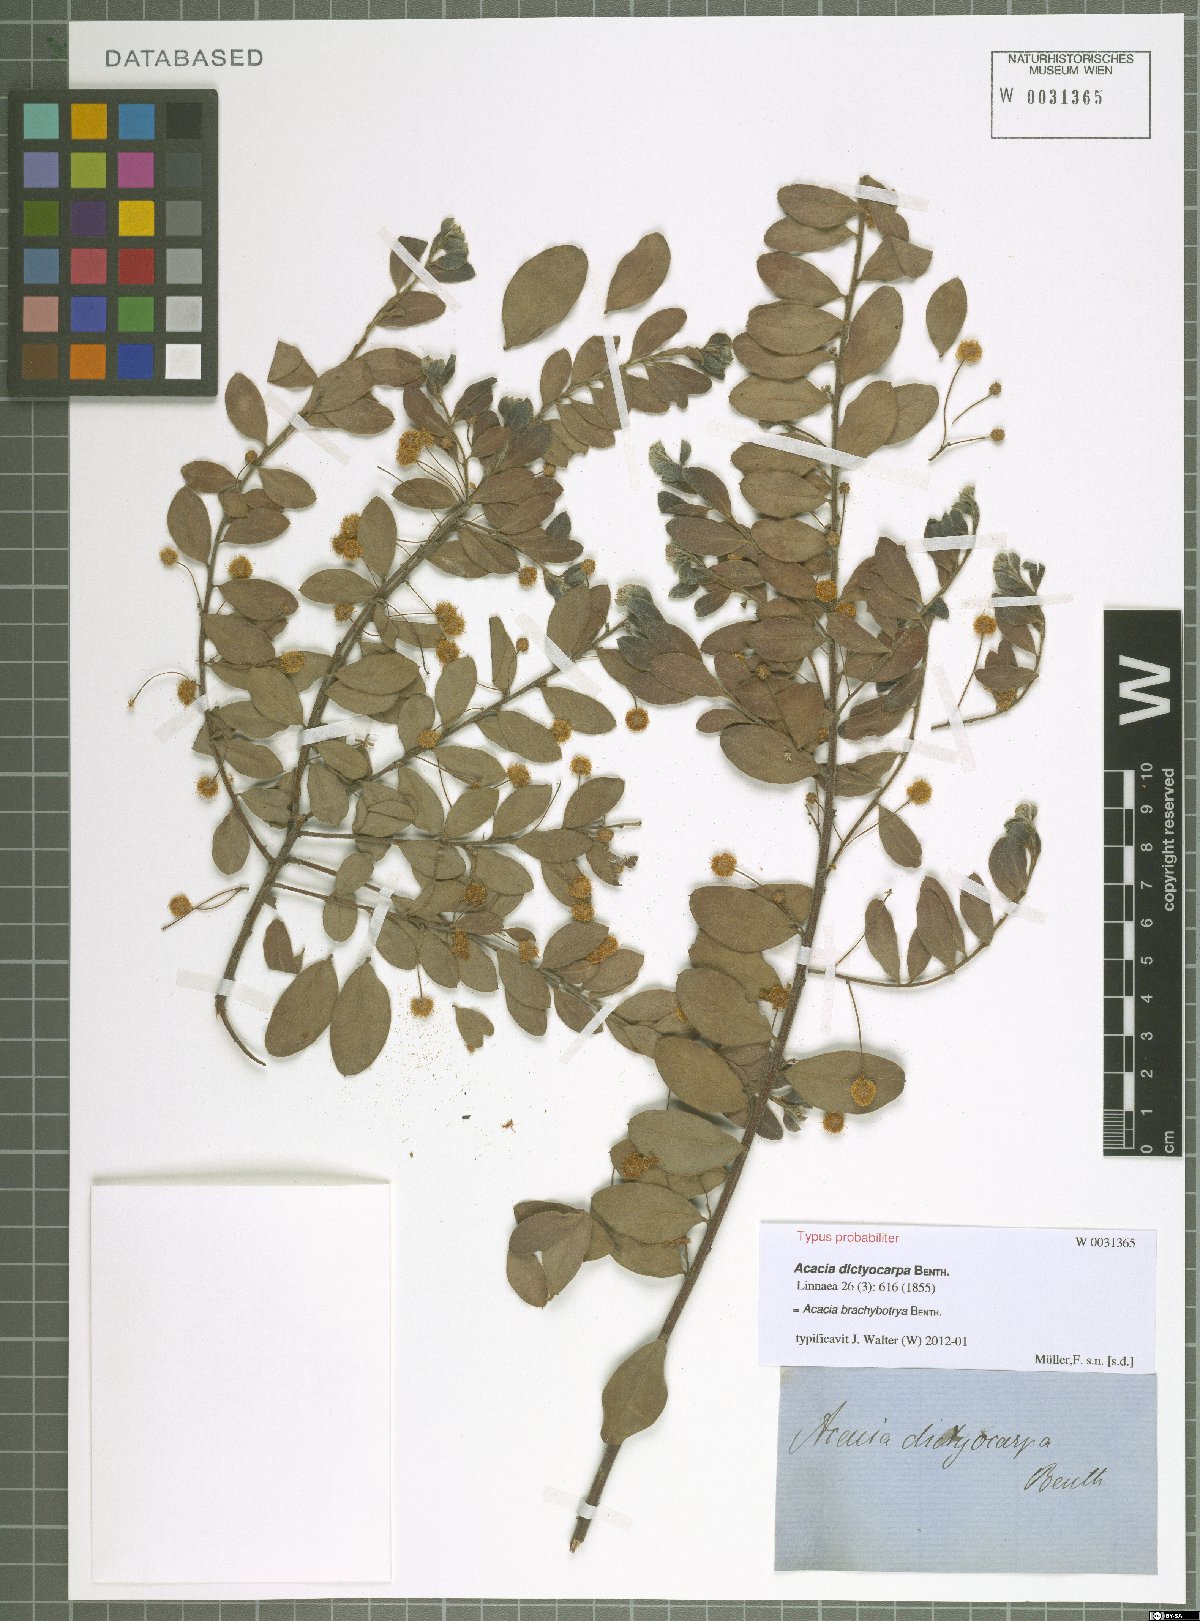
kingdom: Plantae
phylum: Tracheophyta
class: Magnoliopsida
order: Fabales
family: Fabaceae
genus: Acacia
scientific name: Acacia brachybotrya
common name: Grey mulga
